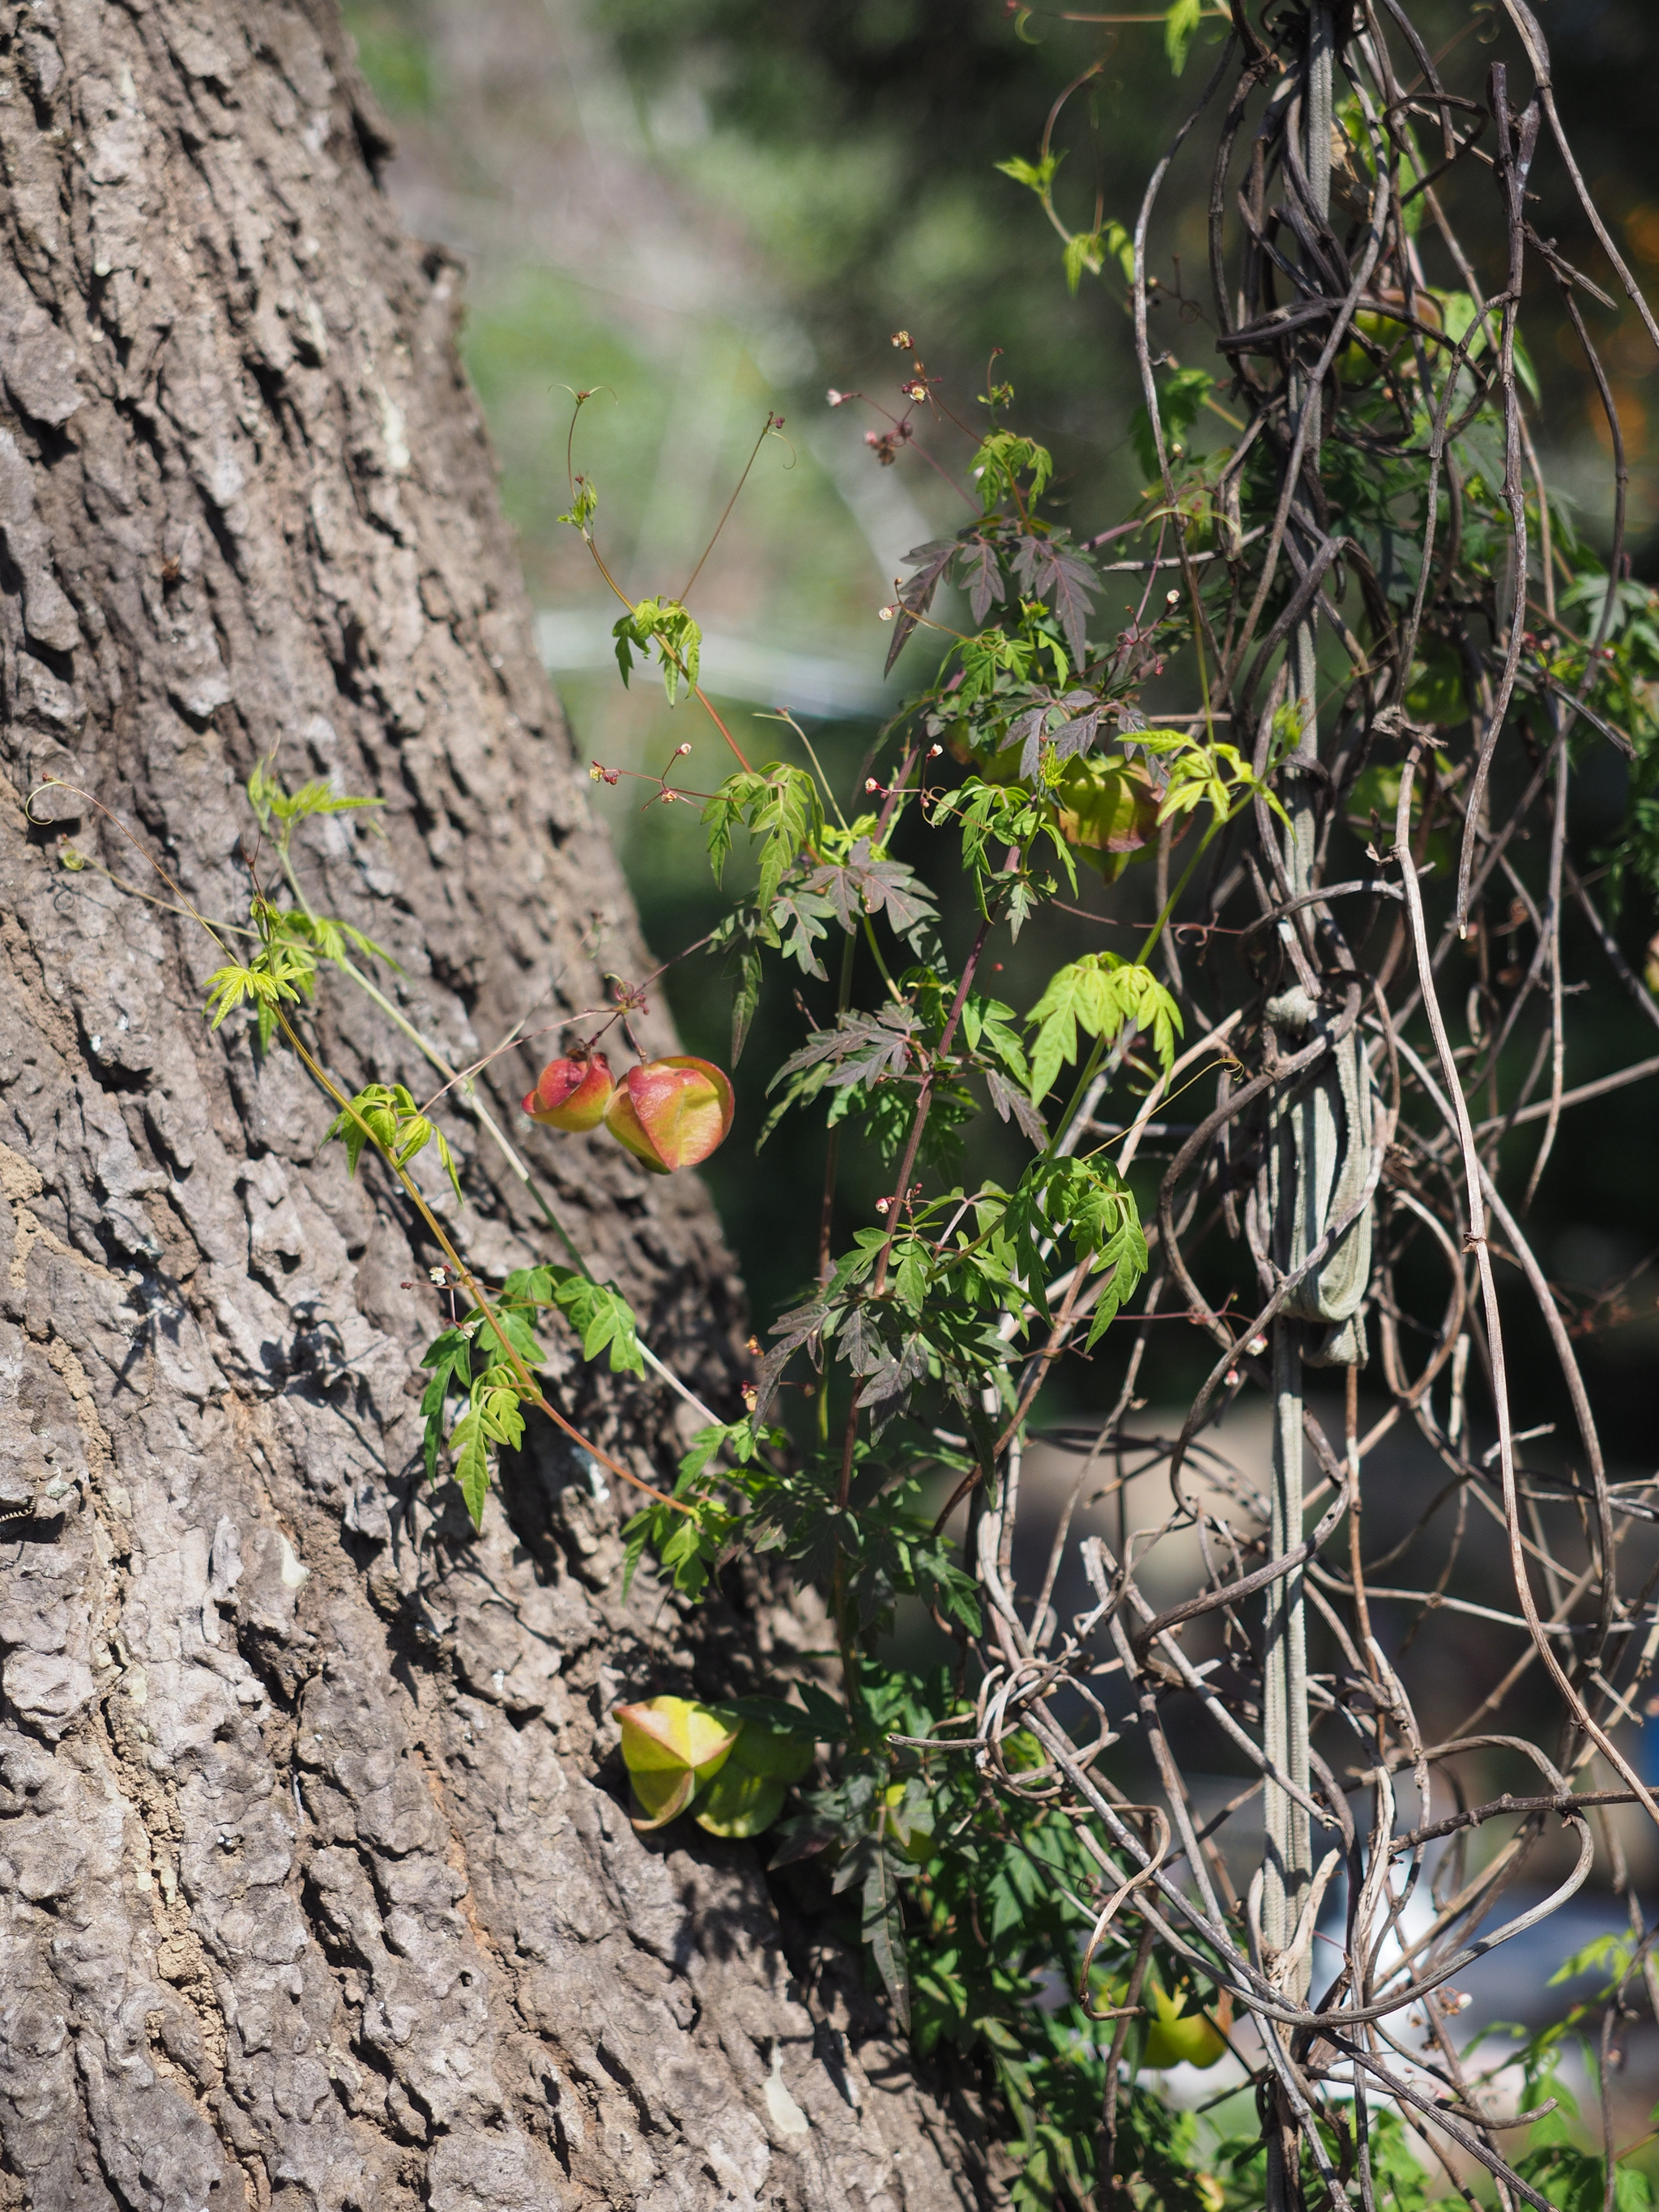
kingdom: Plantae
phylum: Tracheophyta
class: Magnoliopsida
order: Sapindales
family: Sapindaceae
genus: Cardiospermum
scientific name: Cardiospermum halicacabum
